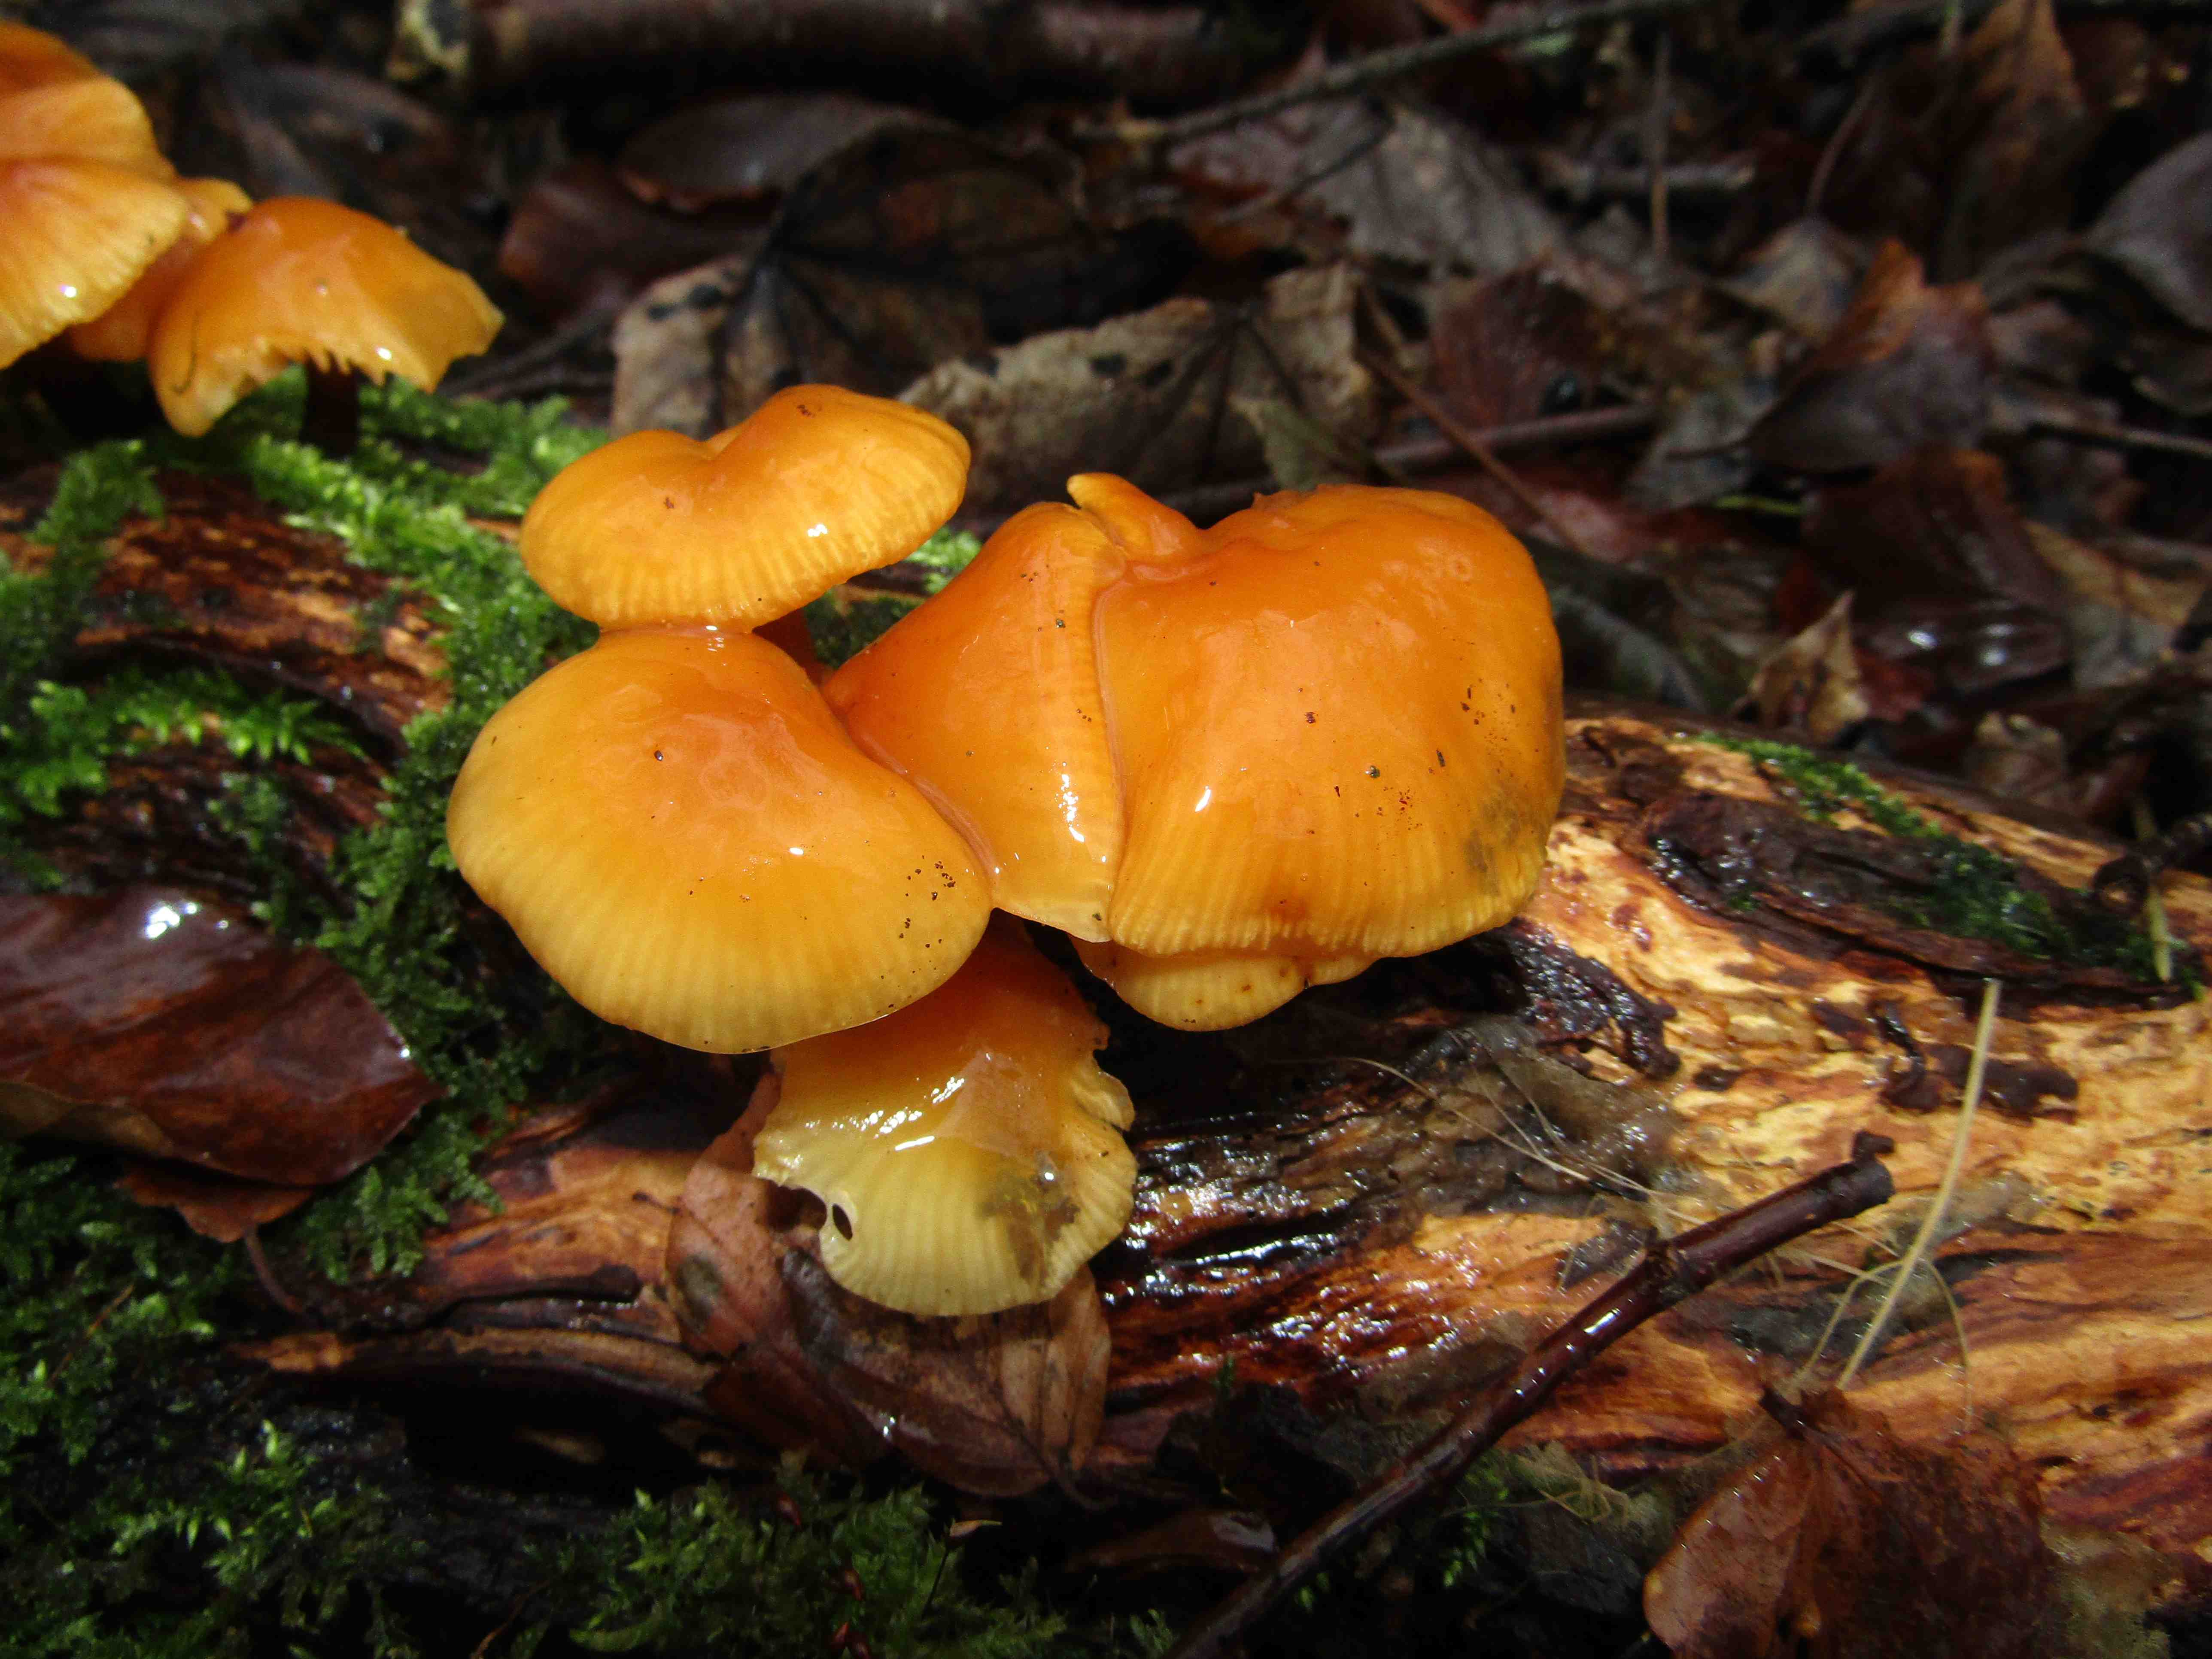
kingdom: Fungi
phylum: Basidiomycota
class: Agaricomycetes
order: Agaricales
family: Physalacriaceae
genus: Flammulina
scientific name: Flammulina velutipes
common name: gul fløjlsfod
